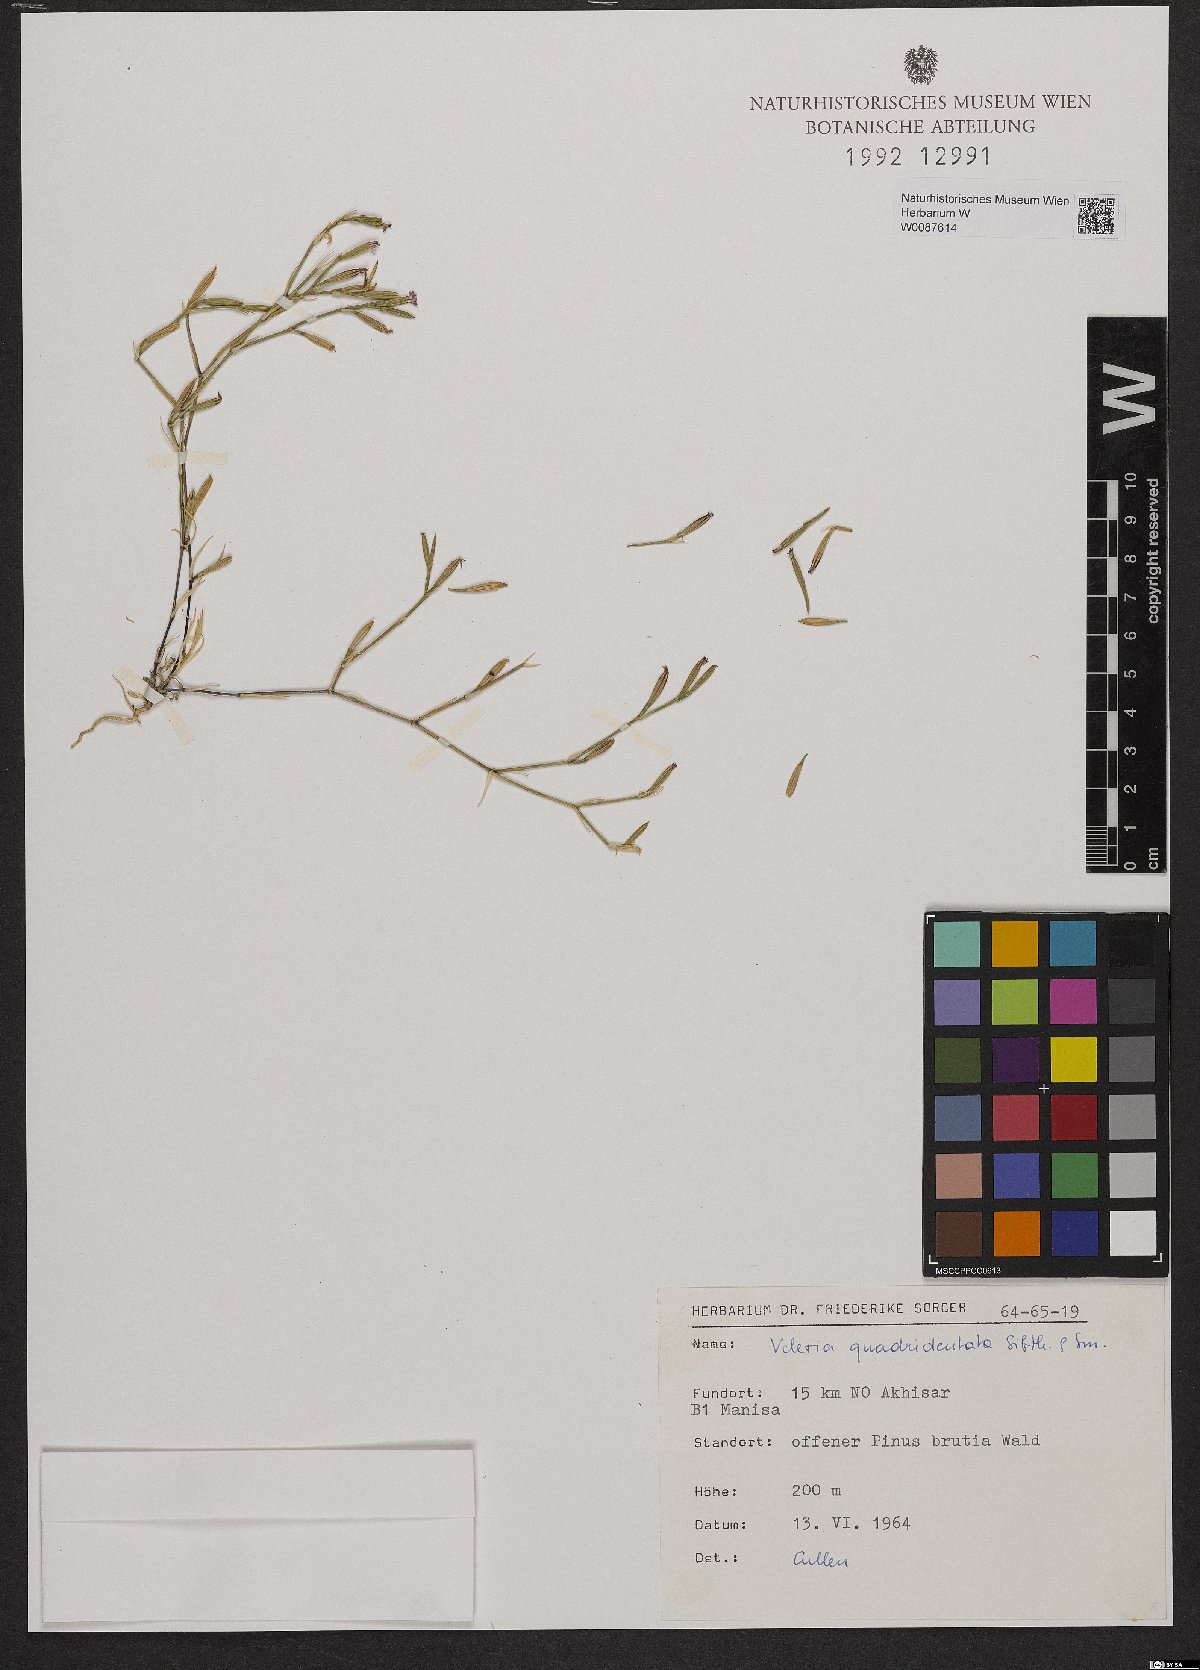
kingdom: Plantae
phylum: Tracheophyta
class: Magnoliopsida
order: Caryophyllales
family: Caryophyllaceae
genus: Dianthus
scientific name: Dianthus quadridentatus
